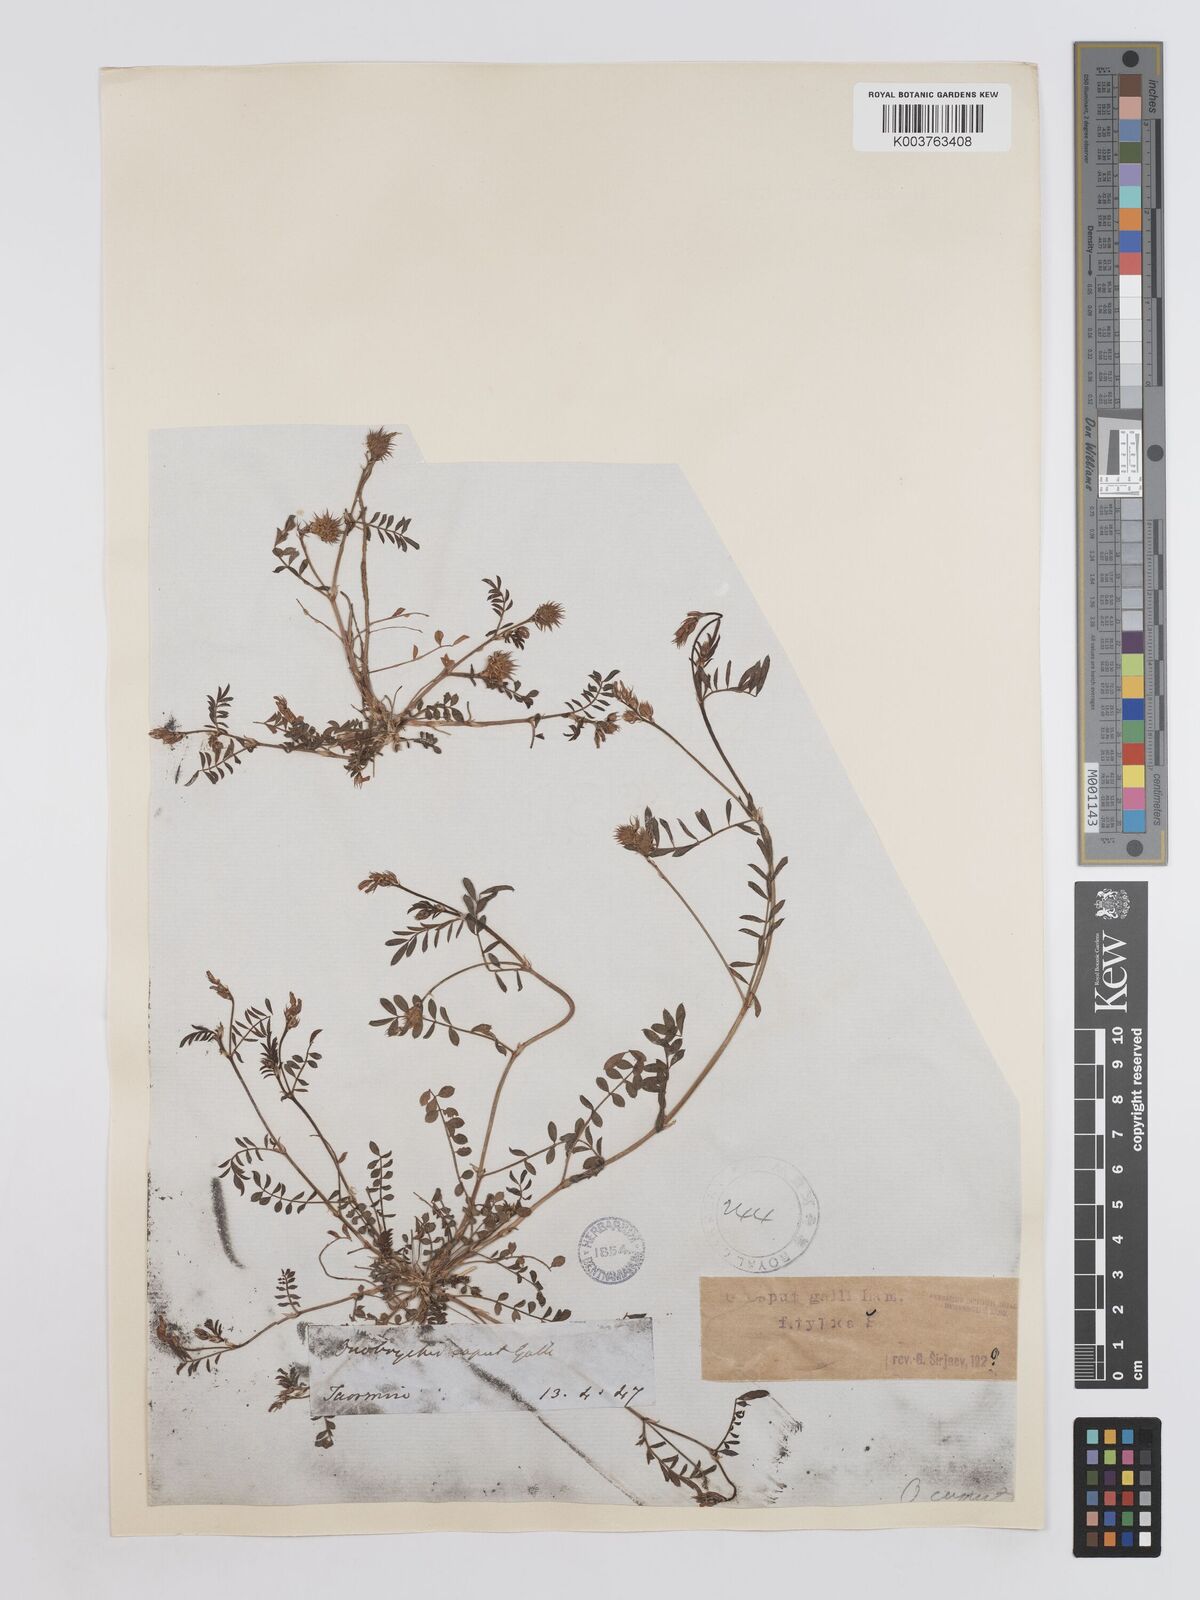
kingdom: Plantae
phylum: Tracheophyta
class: Magnoliopsida
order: Fabales
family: Fabaceae
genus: Onobrychis
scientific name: Onobrychis caput-galli
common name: Cockscomb sainfoin
